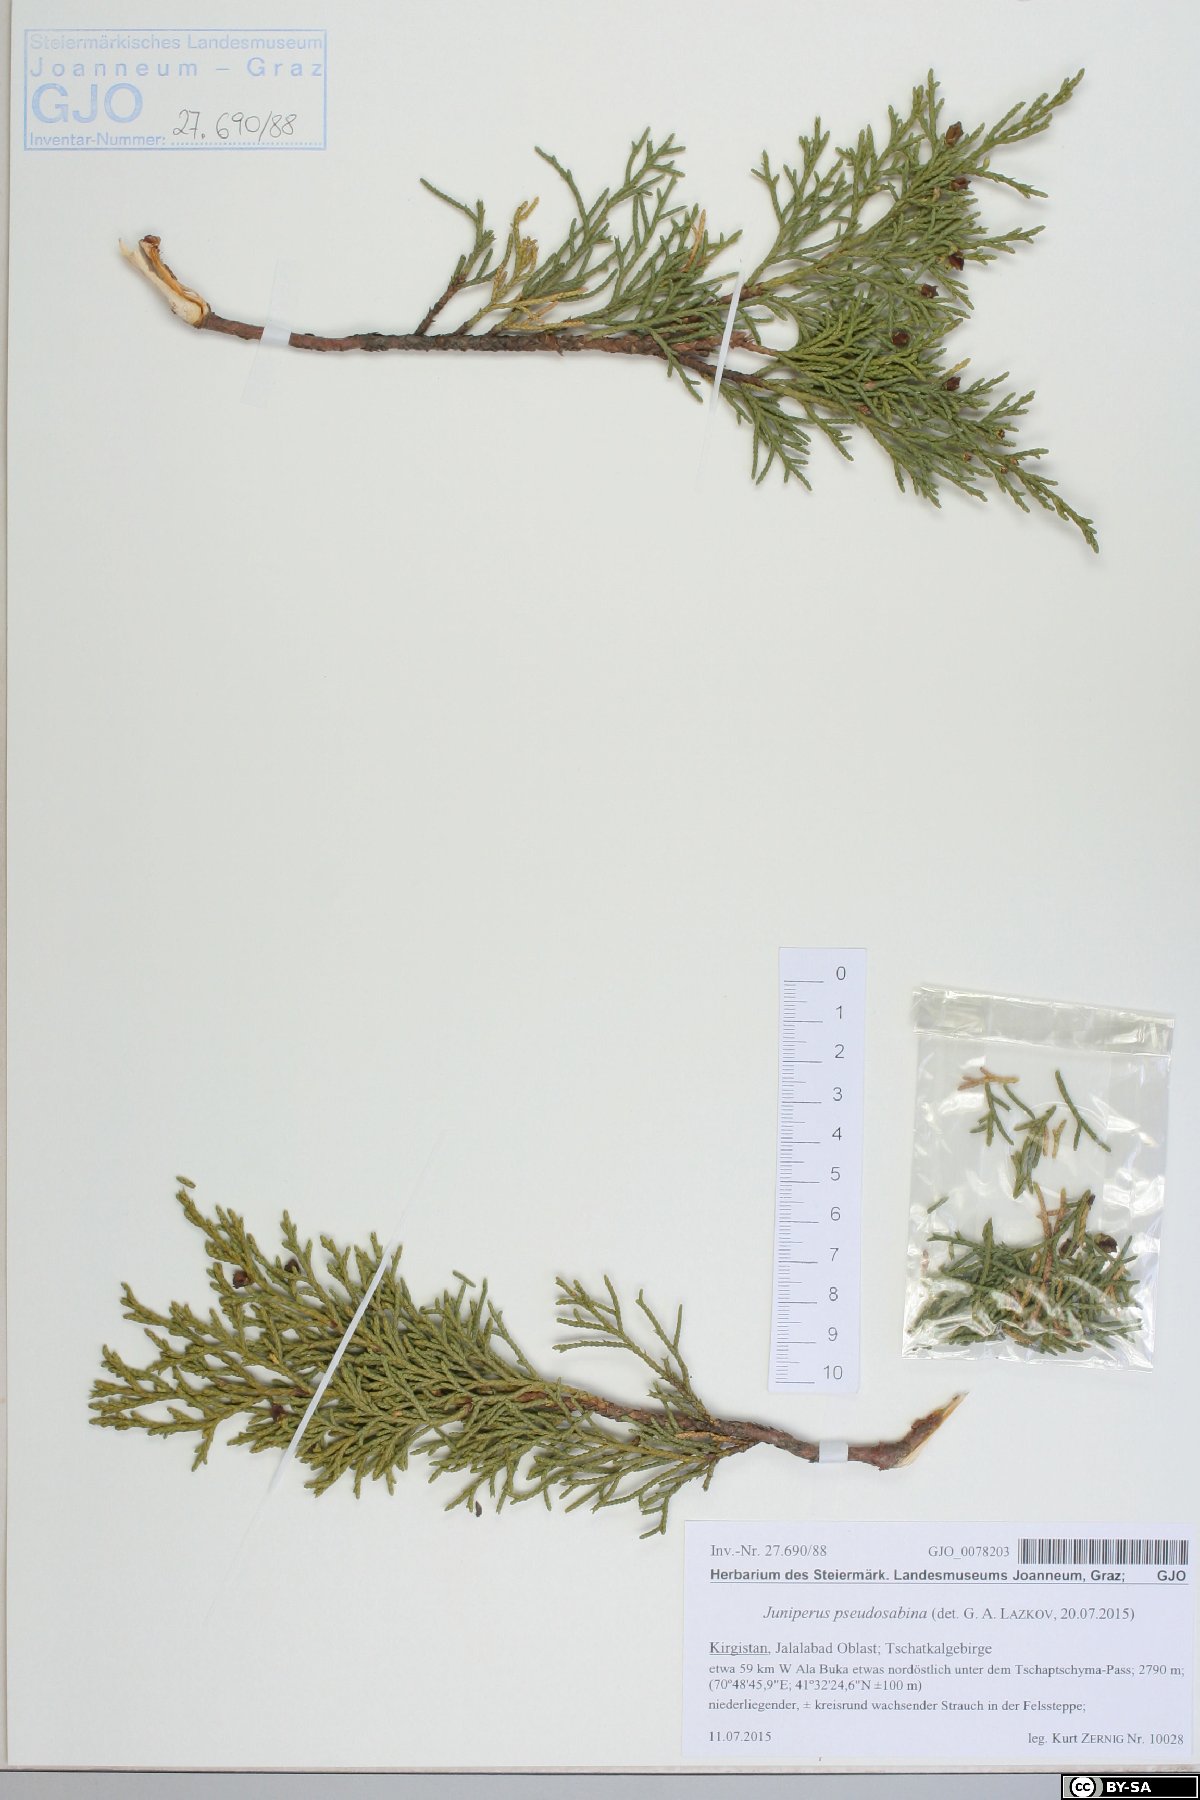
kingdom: Plantae
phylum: Tracheophyta
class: Pinopsida
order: Pinales
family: Cupressaceae
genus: Juniperus
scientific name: Juniperus pseudosabina
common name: Turkestan juniper
